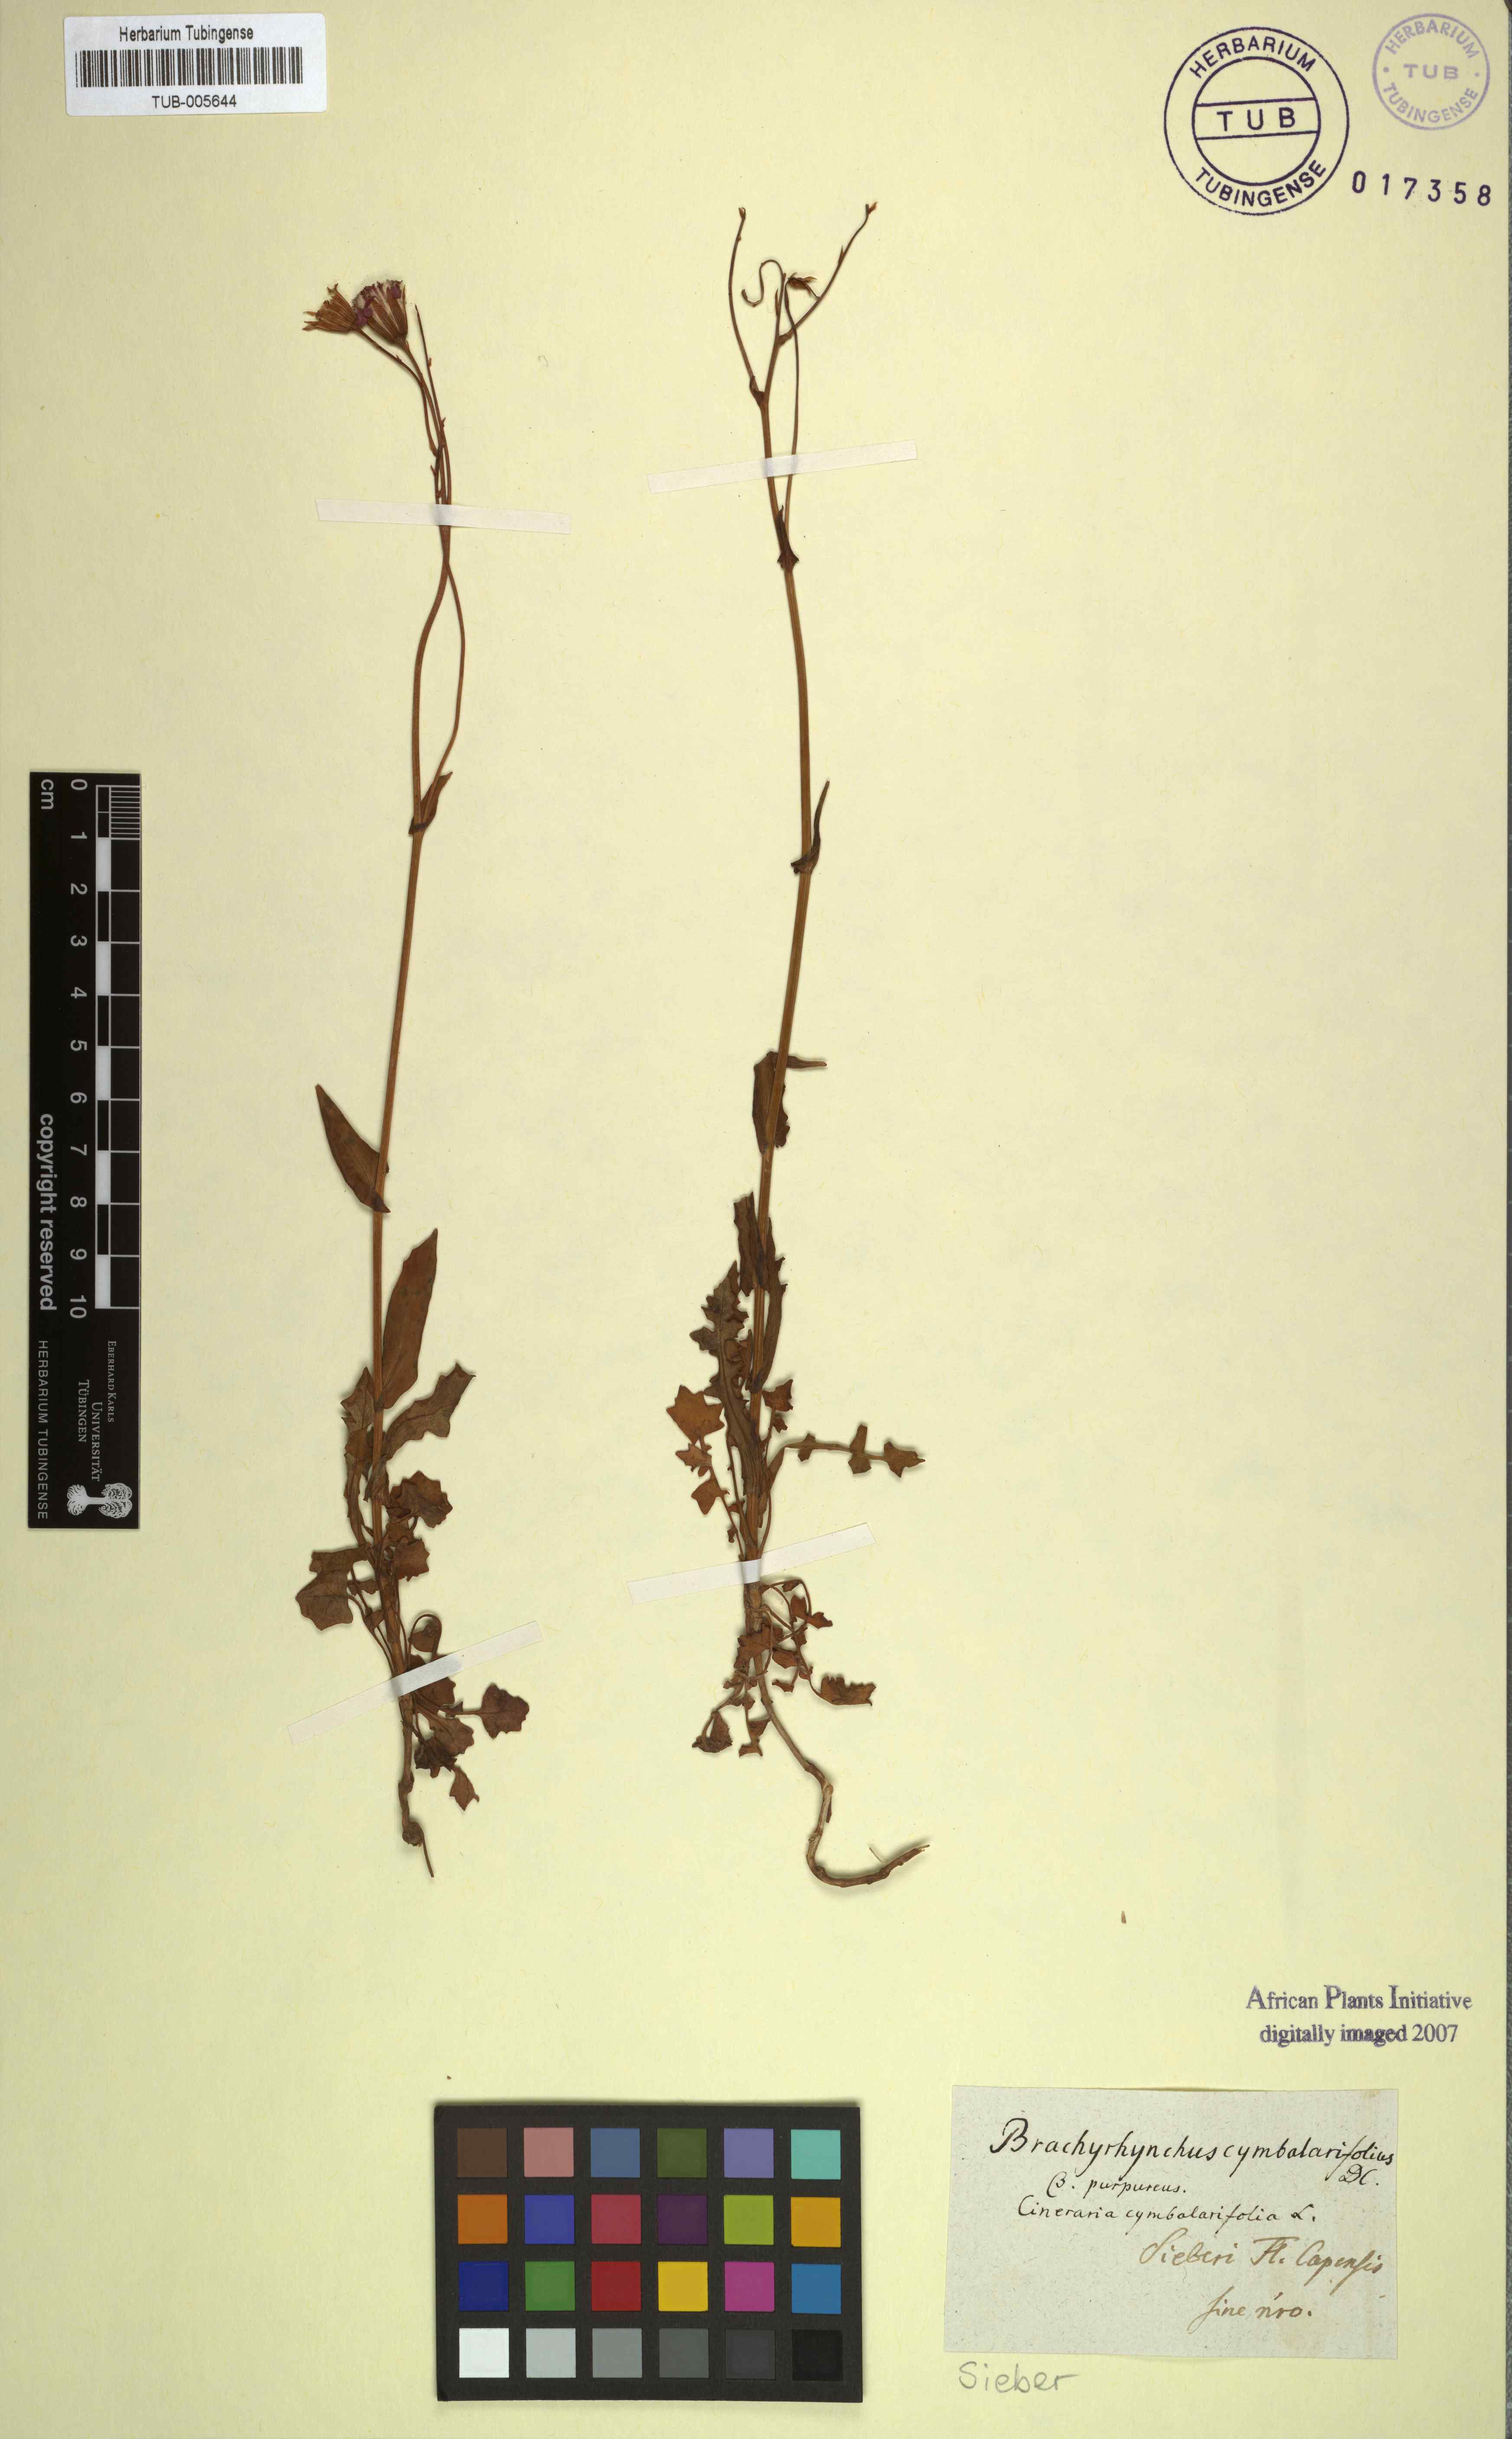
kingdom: Plantae
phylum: Tracheophyta
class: Magnoliopsida
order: Asterales
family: Asteraceae
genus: Senecio
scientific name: Senecio cymbalariifolius
